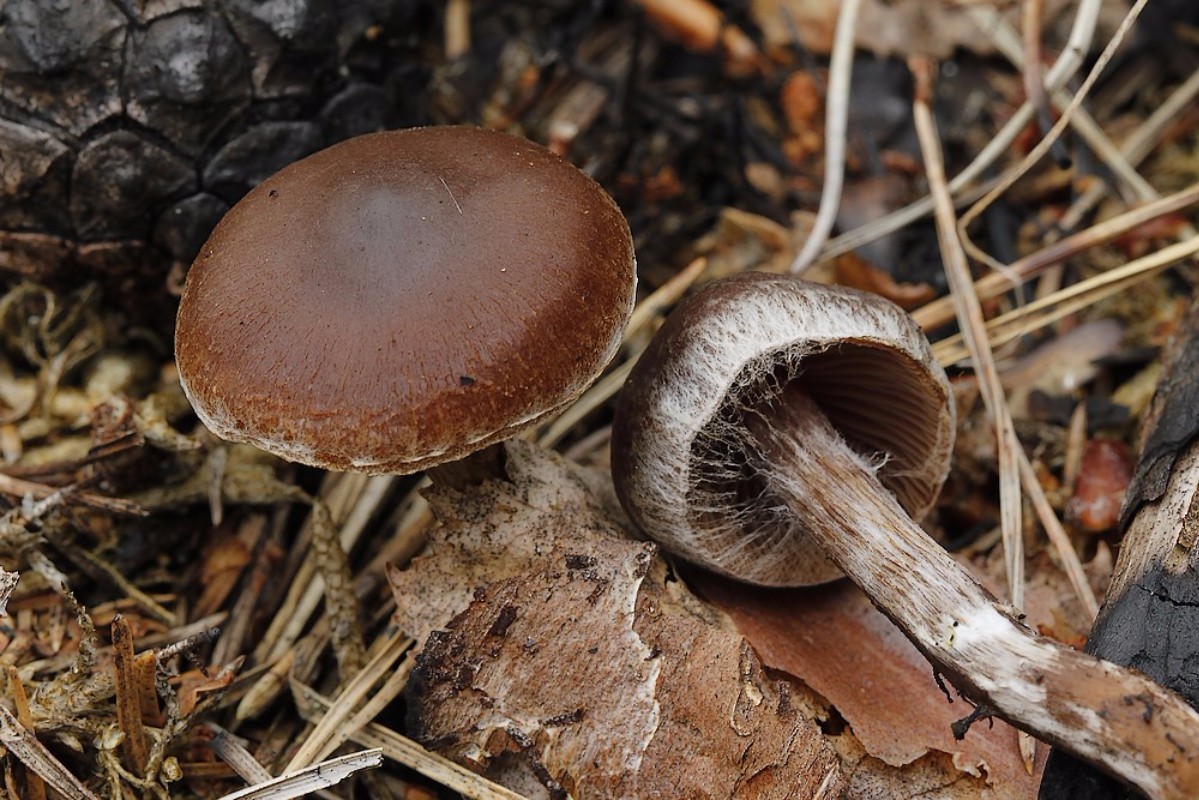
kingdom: Fungi
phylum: Basidiomycota
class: Agaricomycetes
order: Agaricales
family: Cortinariaceae
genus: Cortinarius
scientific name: Cortinarius
